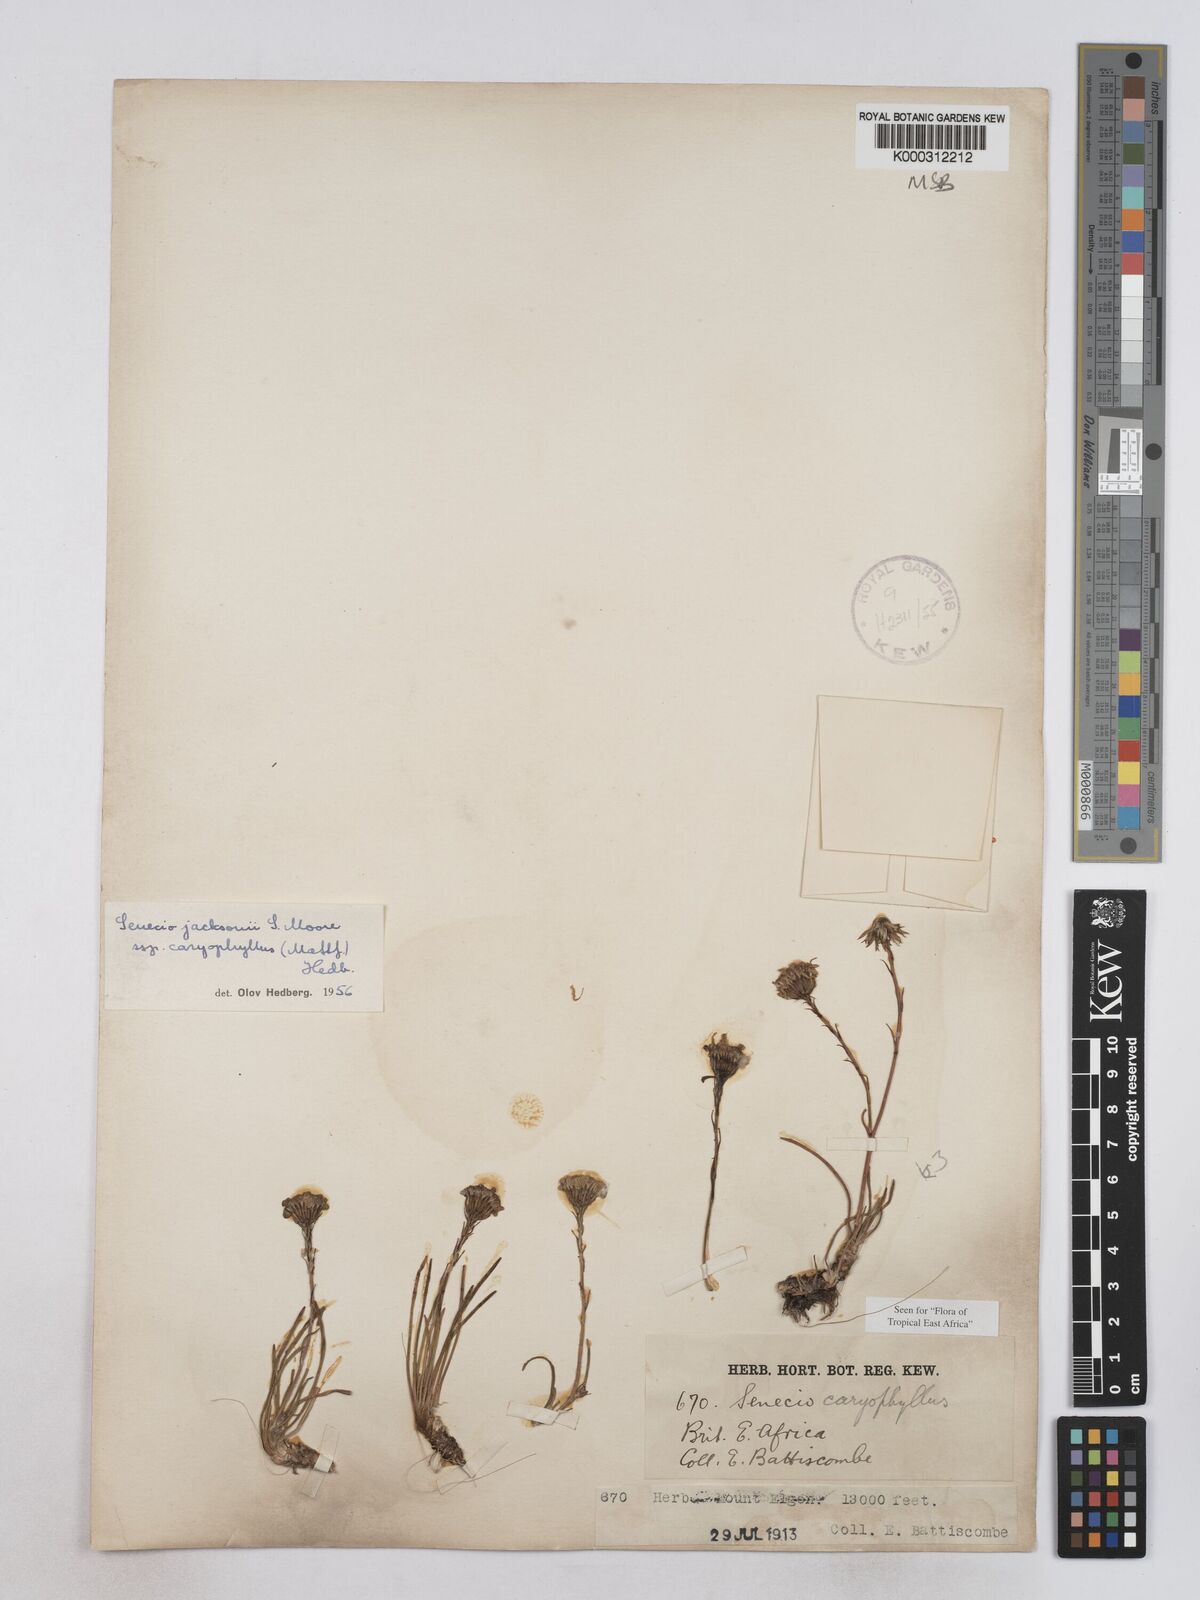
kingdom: Plantae
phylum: Tracheophyta
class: Magnoliopsida
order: Asterales
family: Asteraceae
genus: Senecio
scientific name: Senecio jacksonii
